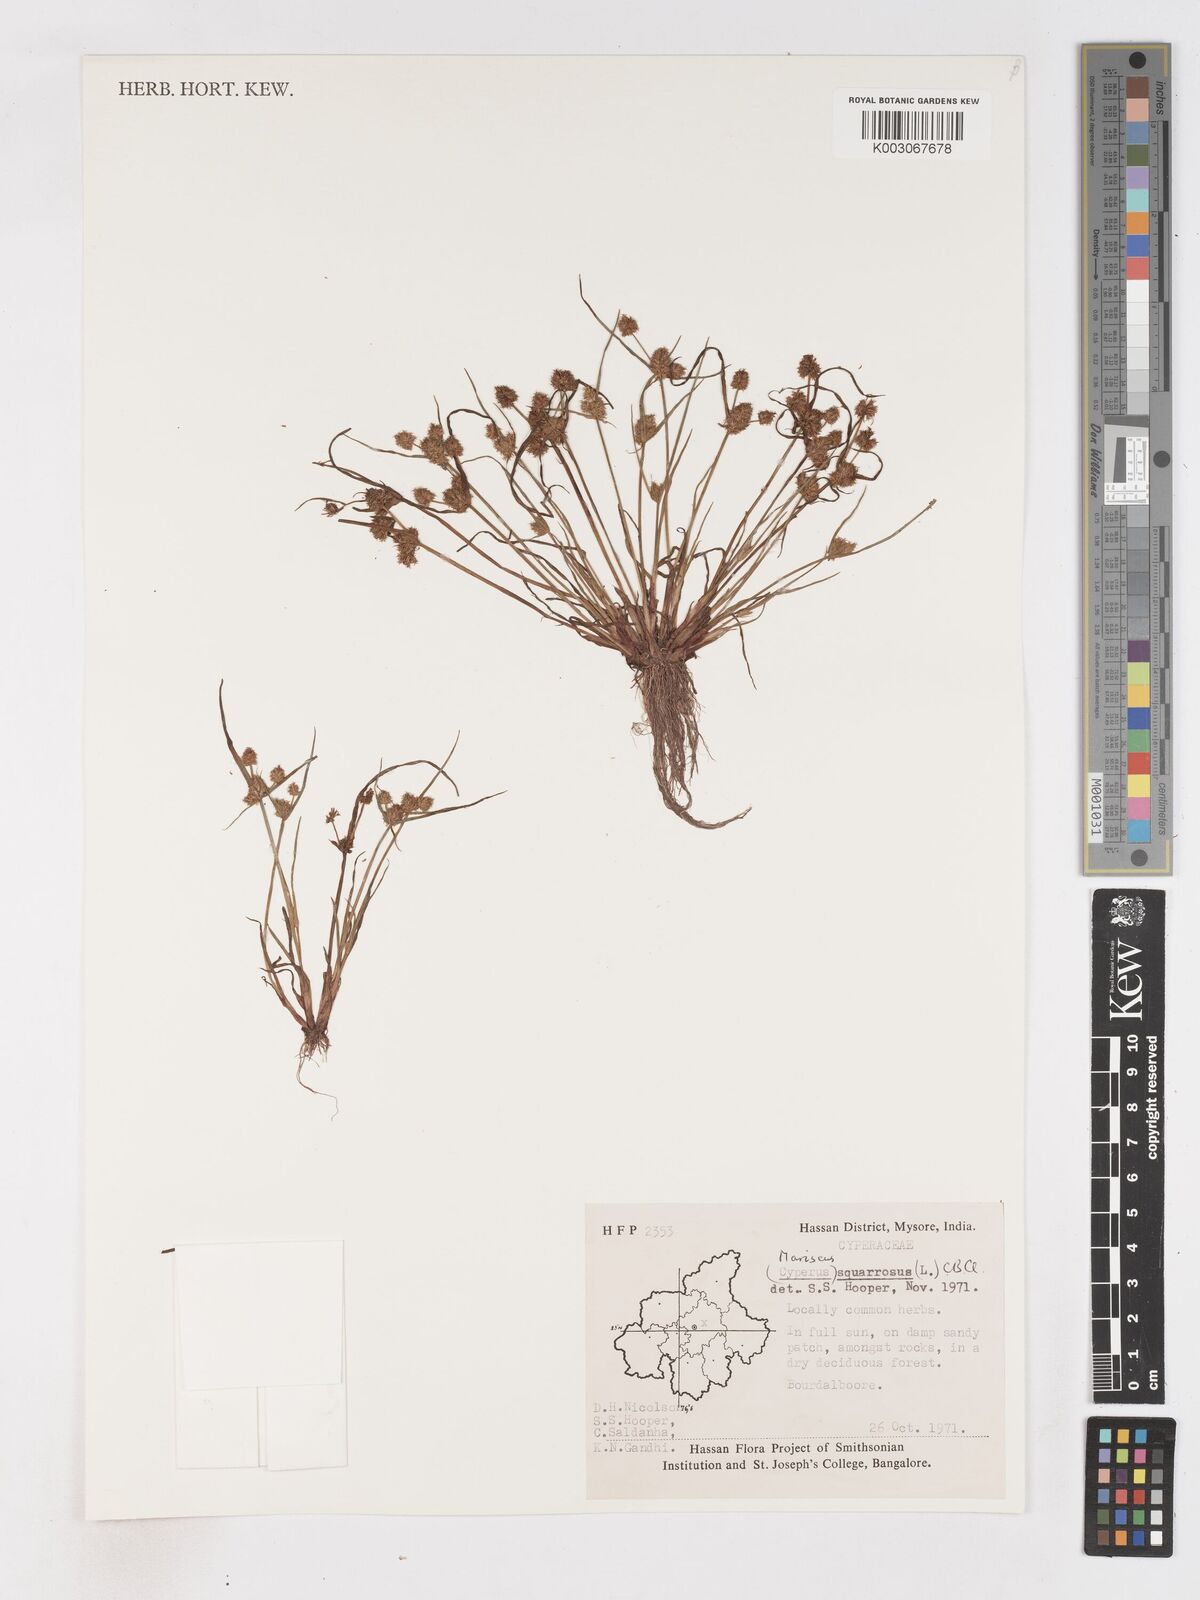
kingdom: Plantae
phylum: Tracheophyta
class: Liliopsida
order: Poales
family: Cyperaceae
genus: Cyperus
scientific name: Cyperus squarrosus
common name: Awned cyperus
